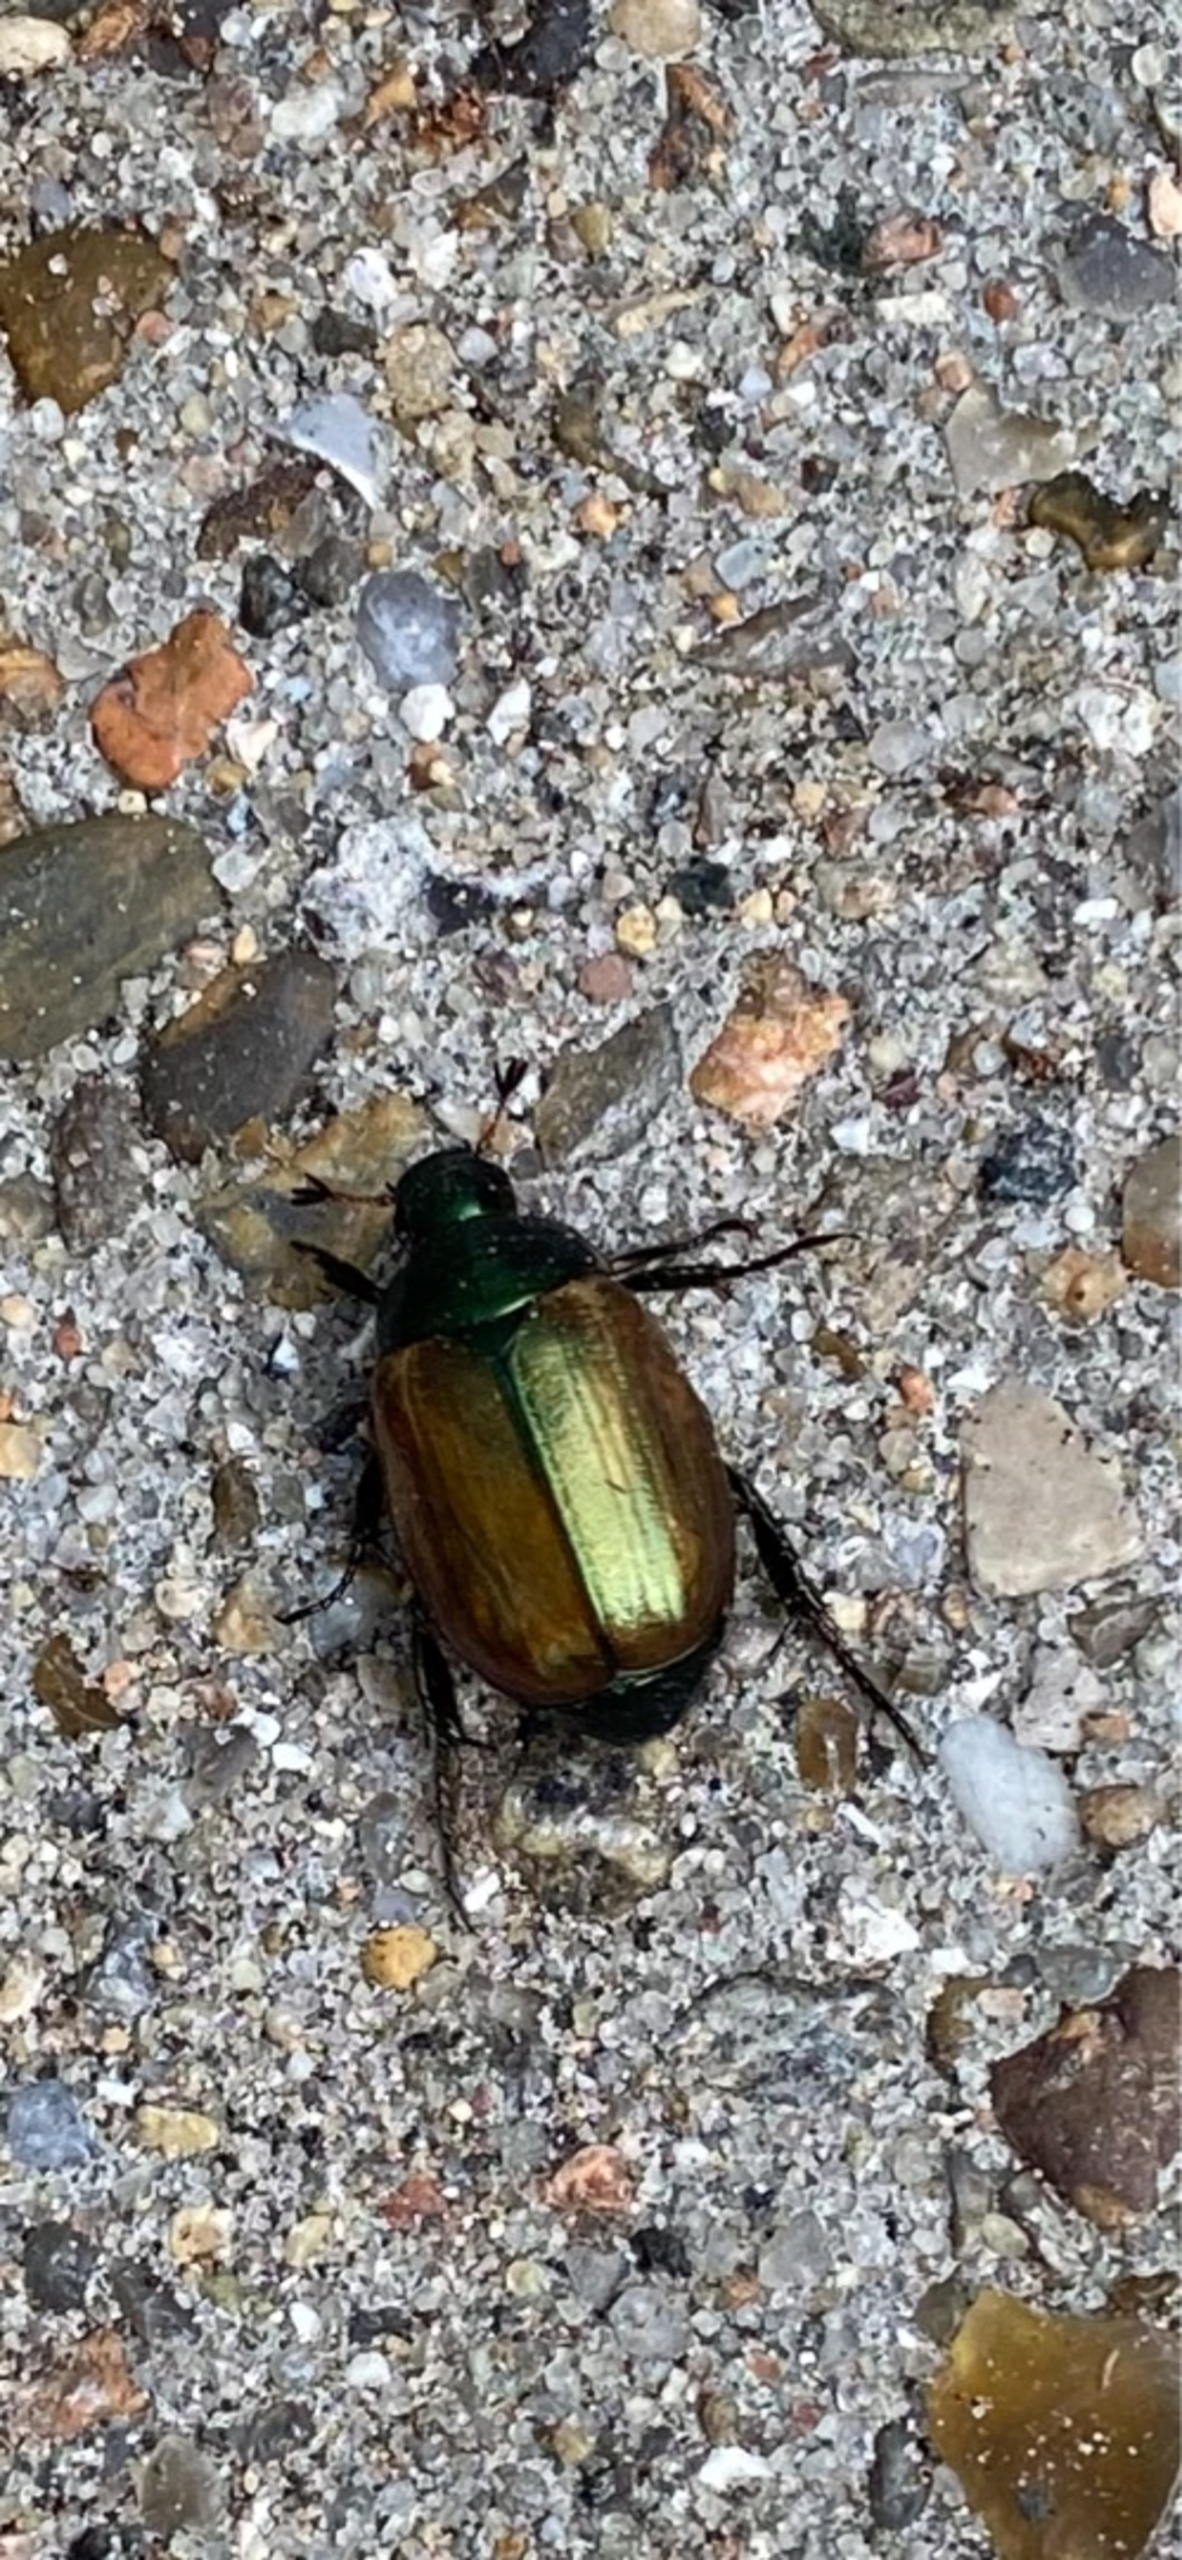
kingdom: Animalia
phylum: Arthropoda
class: Insecta
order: Coleoptera
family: Scarabaeidae
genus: Anomala
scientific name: Anomala dubia
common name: Klitoldenborre
